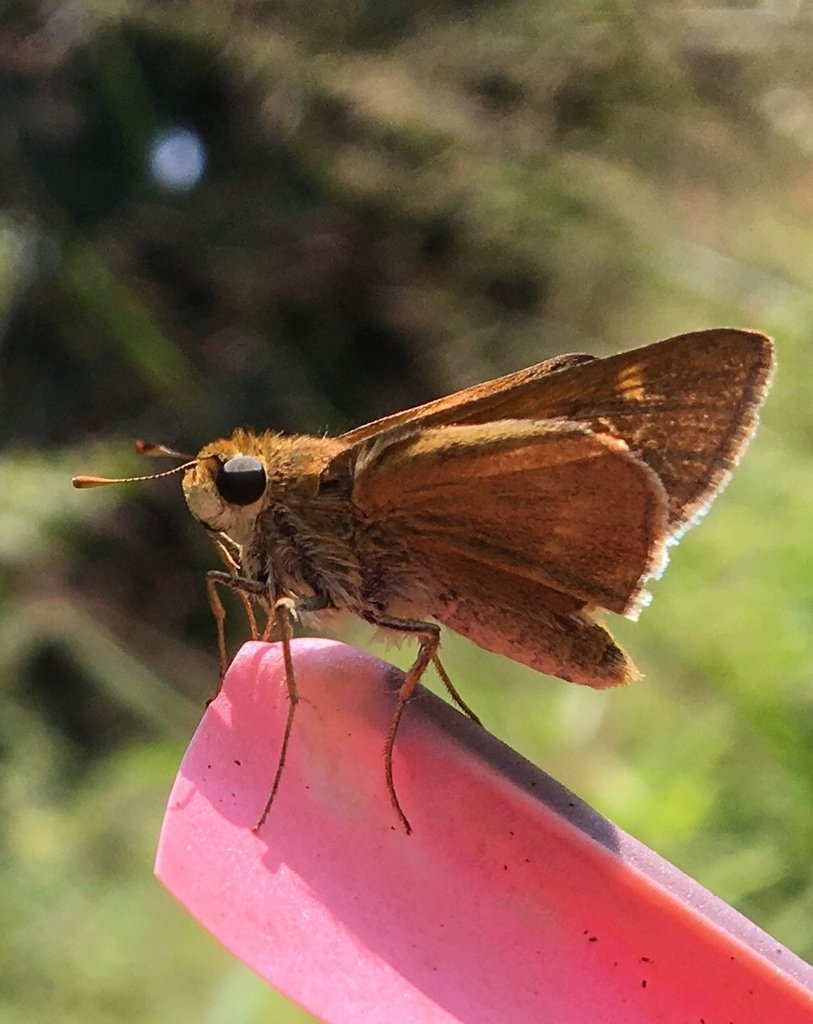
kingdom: Animalia
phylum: Arthropoda
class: Insecta
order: Lepidoptera
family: Hesperiidae
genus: Polites
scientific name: Polites
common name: Crossline Skipper
